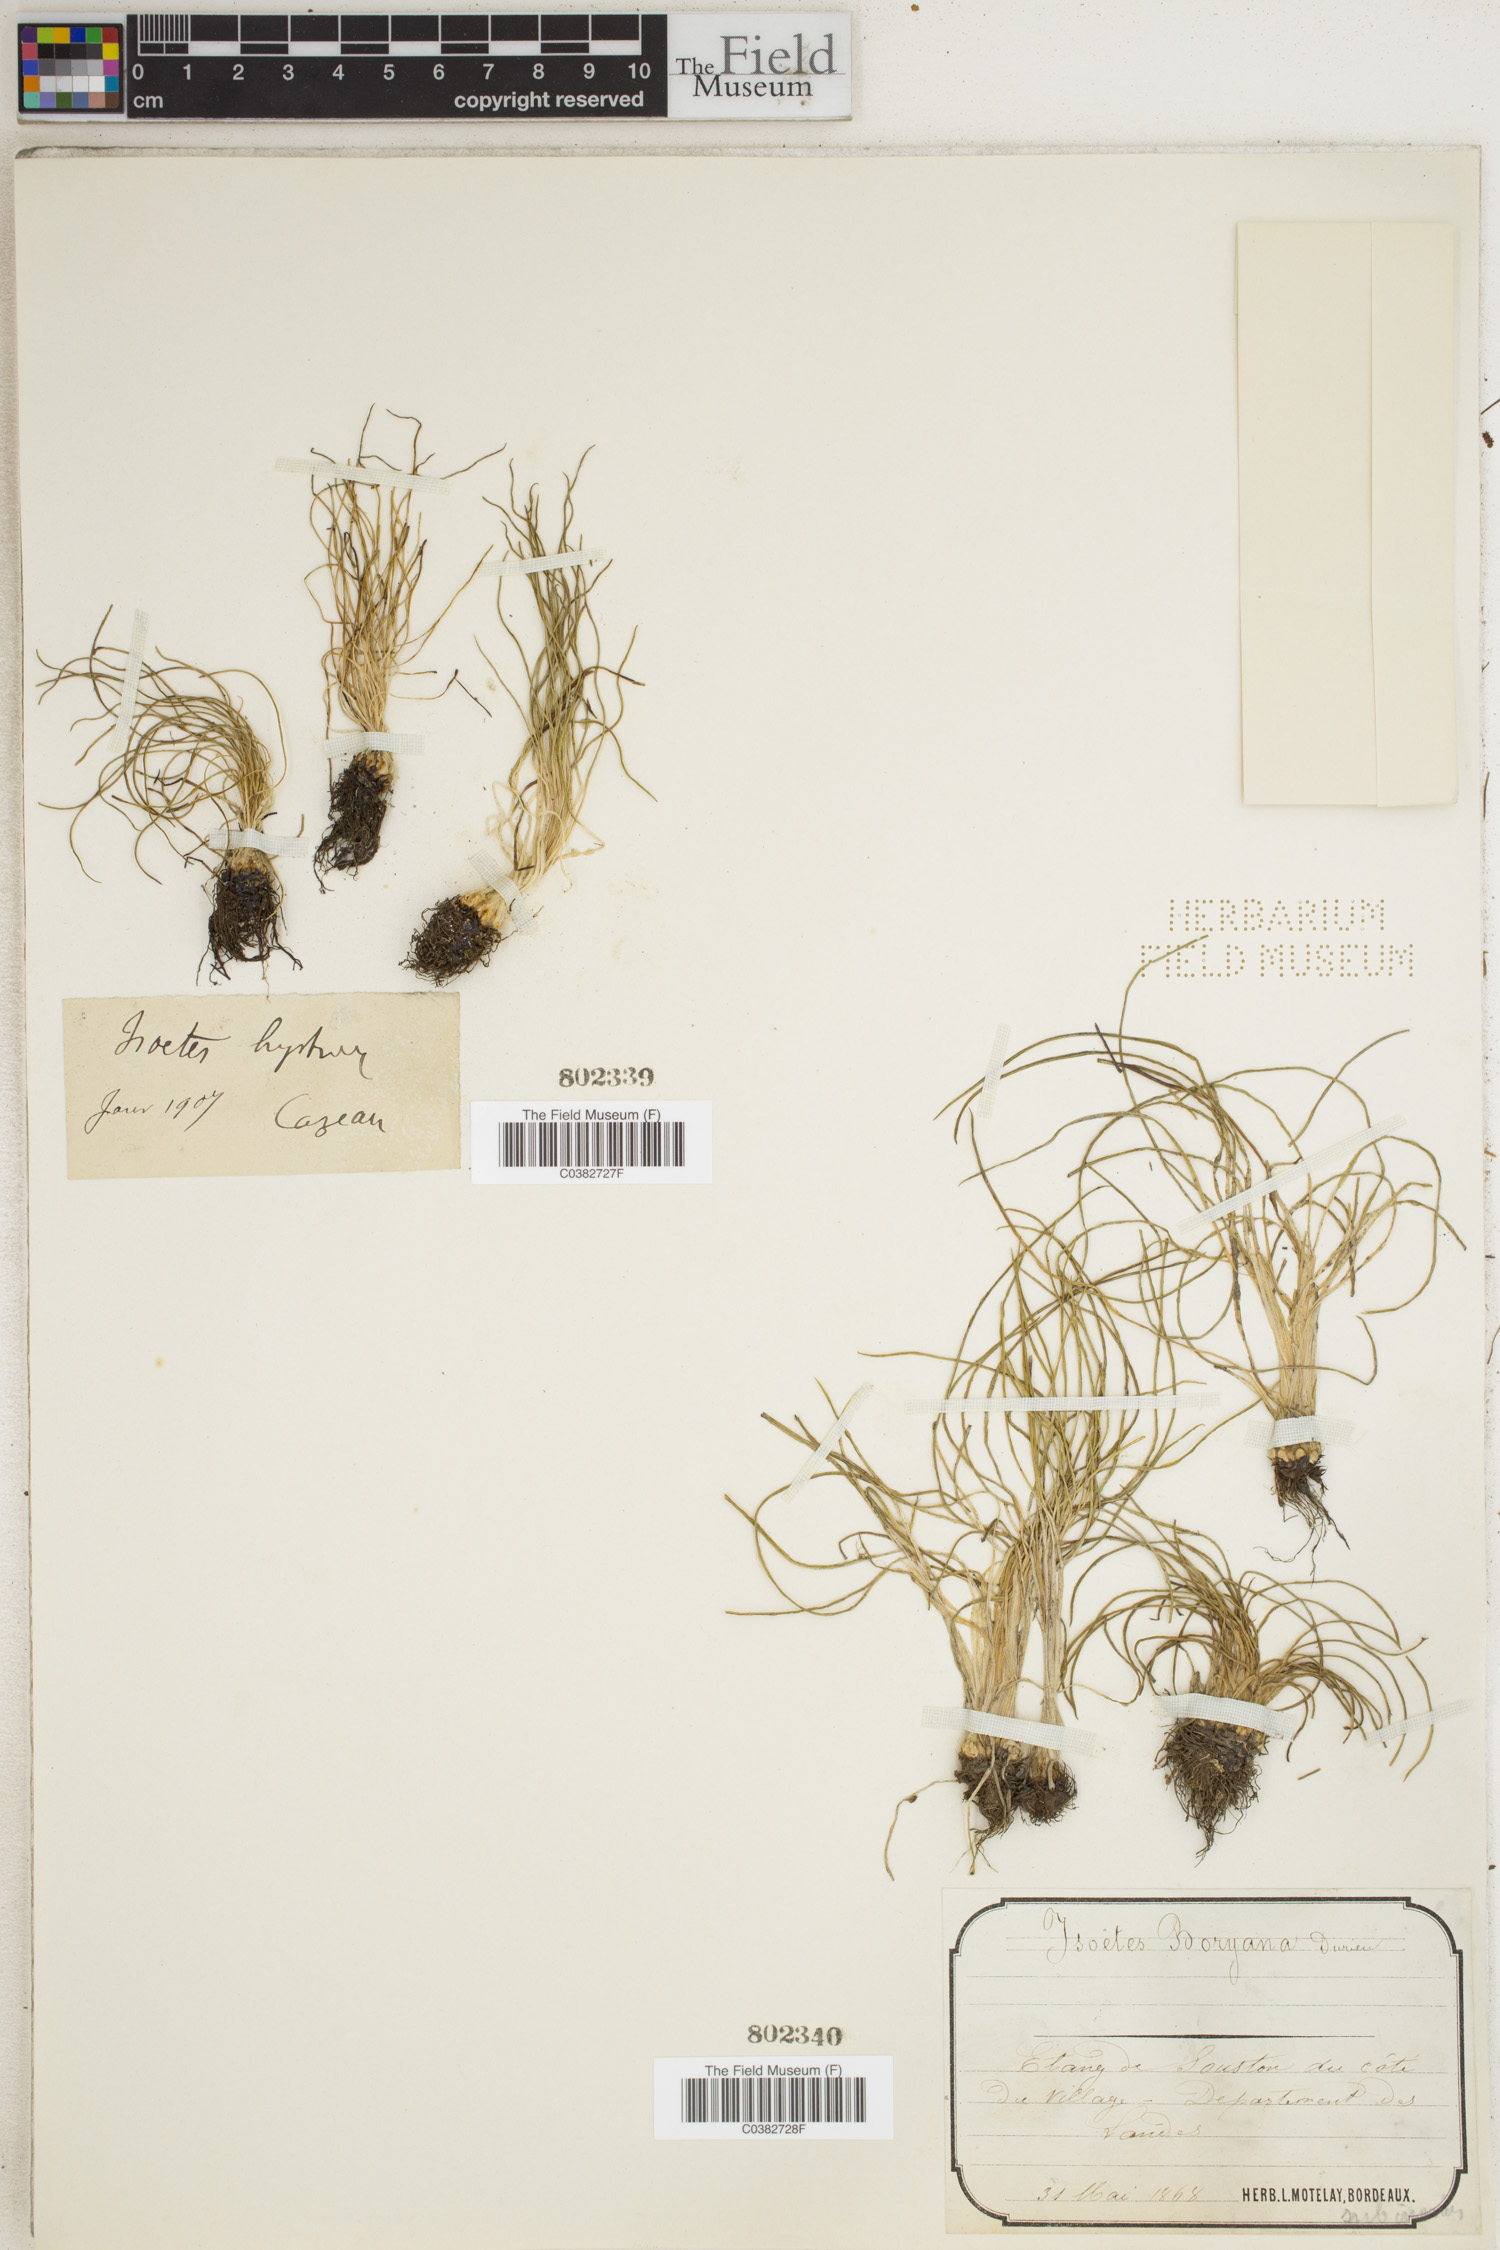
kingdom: Plantae
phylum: Tracheophyta
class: Lycopodiopsida
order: Isoetales
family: Isoetaceae
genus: Isoetes
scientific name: Isoetes boryana
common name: Gascoyne quillwort
